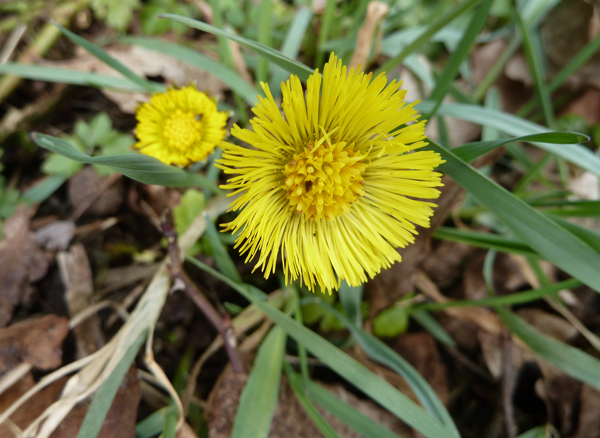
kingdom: Plantae
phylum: Tracheophyta
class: Magnoliopsida
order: Asterales
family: Asteraceae
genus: Tussilago
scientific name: Tussilago farfara
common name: Coltsfoot
